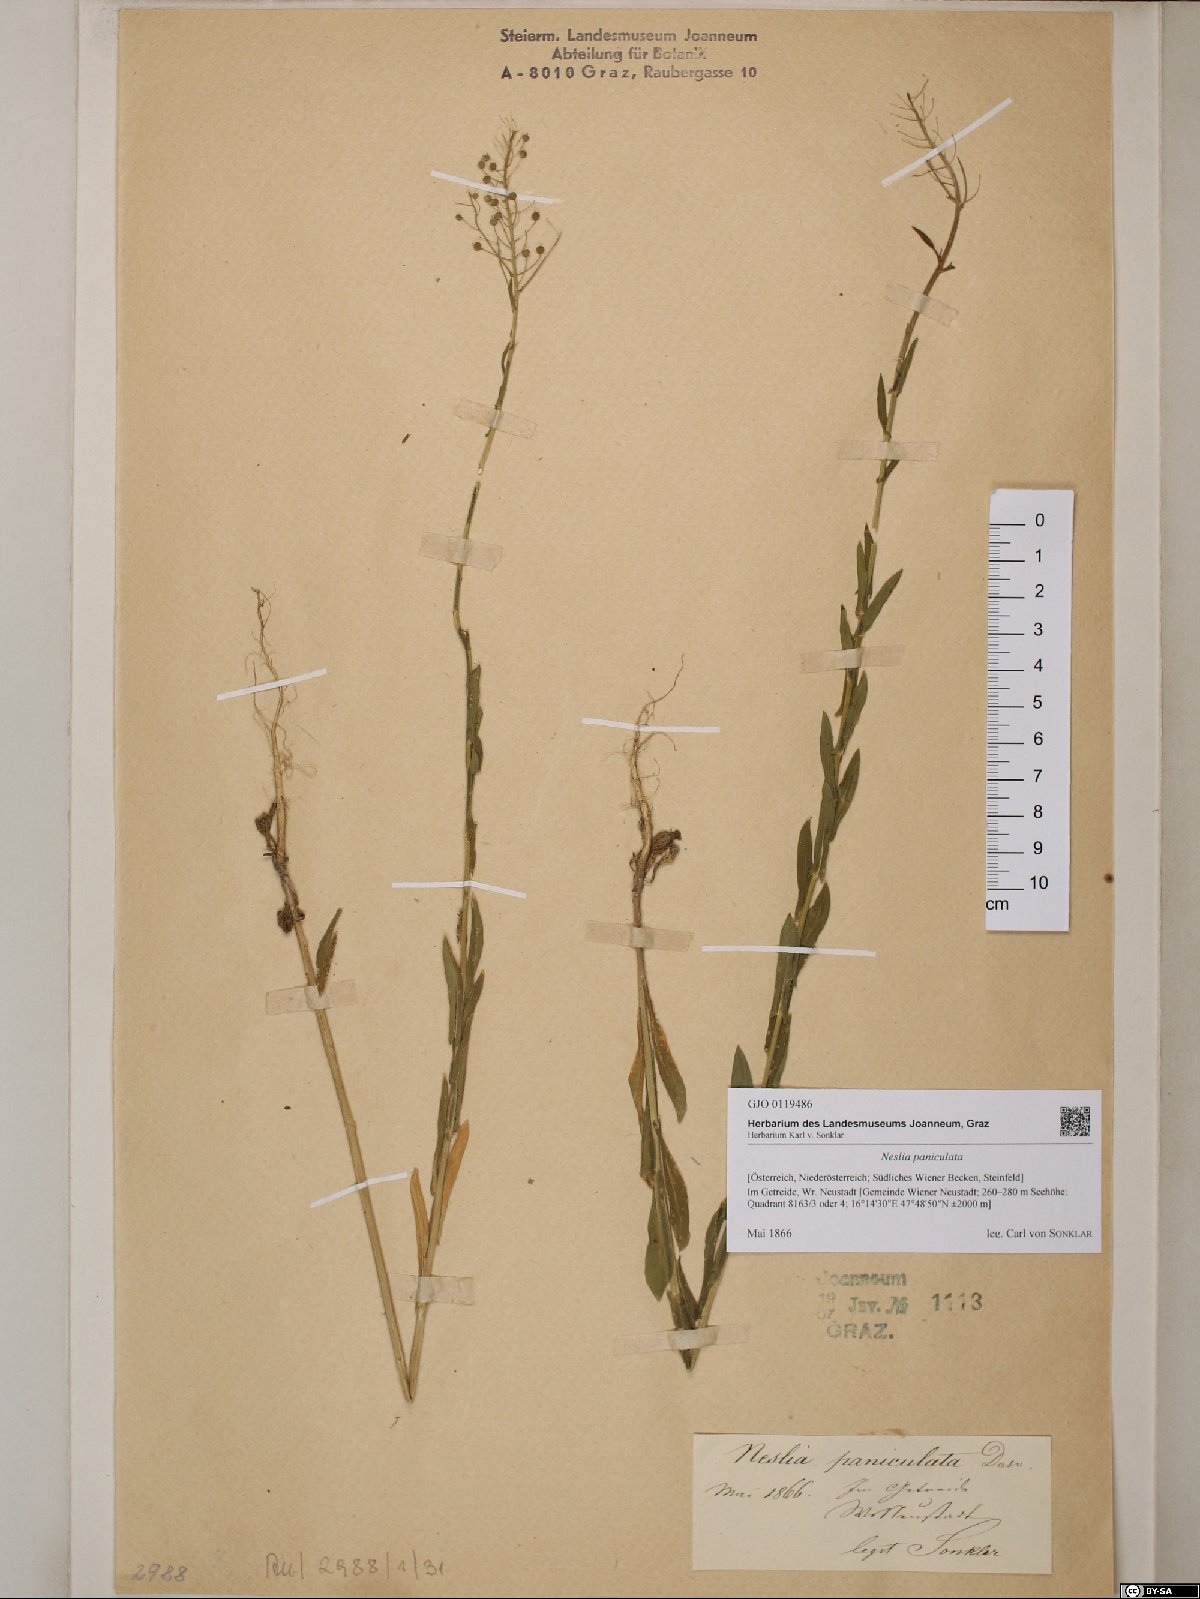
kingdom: Plantae
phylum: Tracheophyta
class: Magnoliopsida
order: Brassicales
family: Brassicaceae
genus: Neslia
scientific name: Neslia paniculata
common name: Ball mustard
